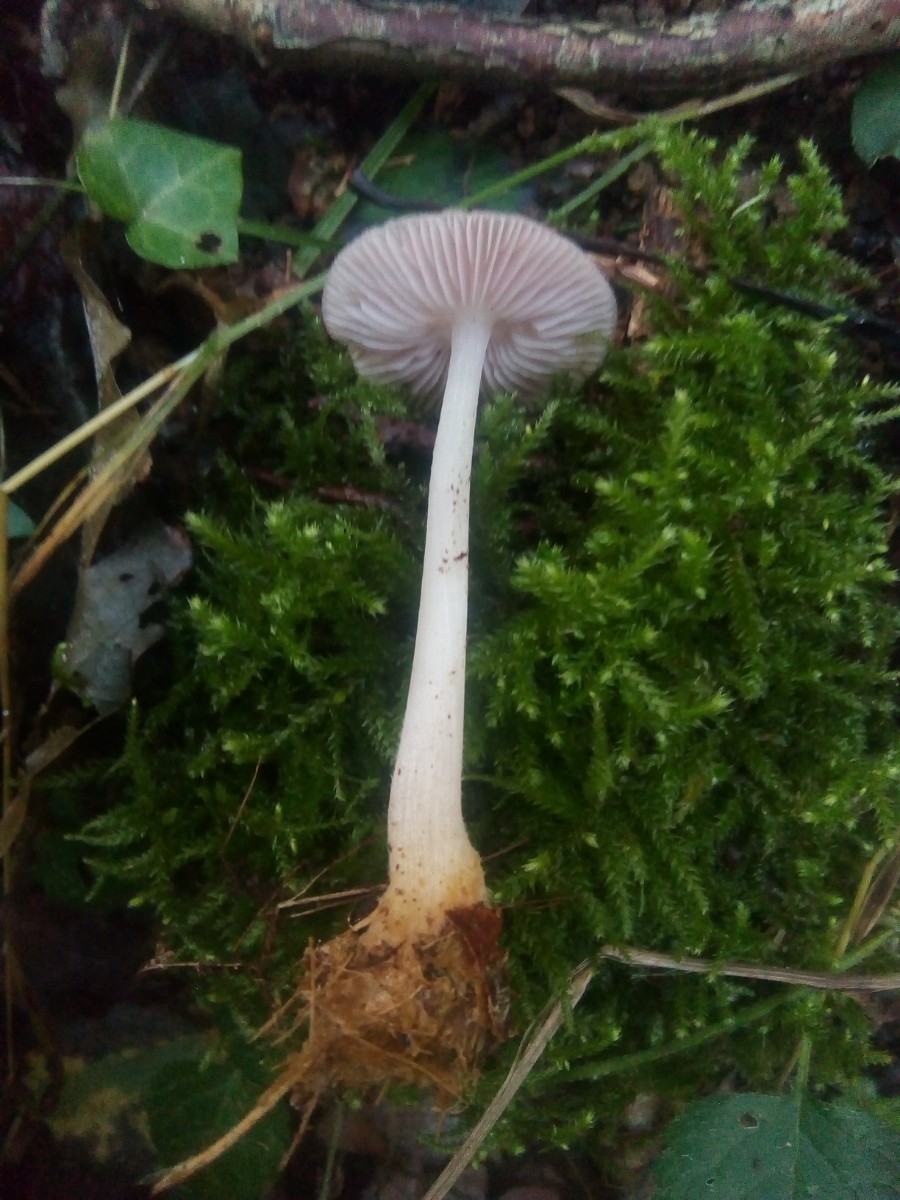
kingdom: Fungi
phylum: Basidiomycota
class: Agaricomycetes
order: Agaricales
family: Mycenaceae
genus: Mycena
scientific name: Mycena rosea
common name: rosa huesvamp
